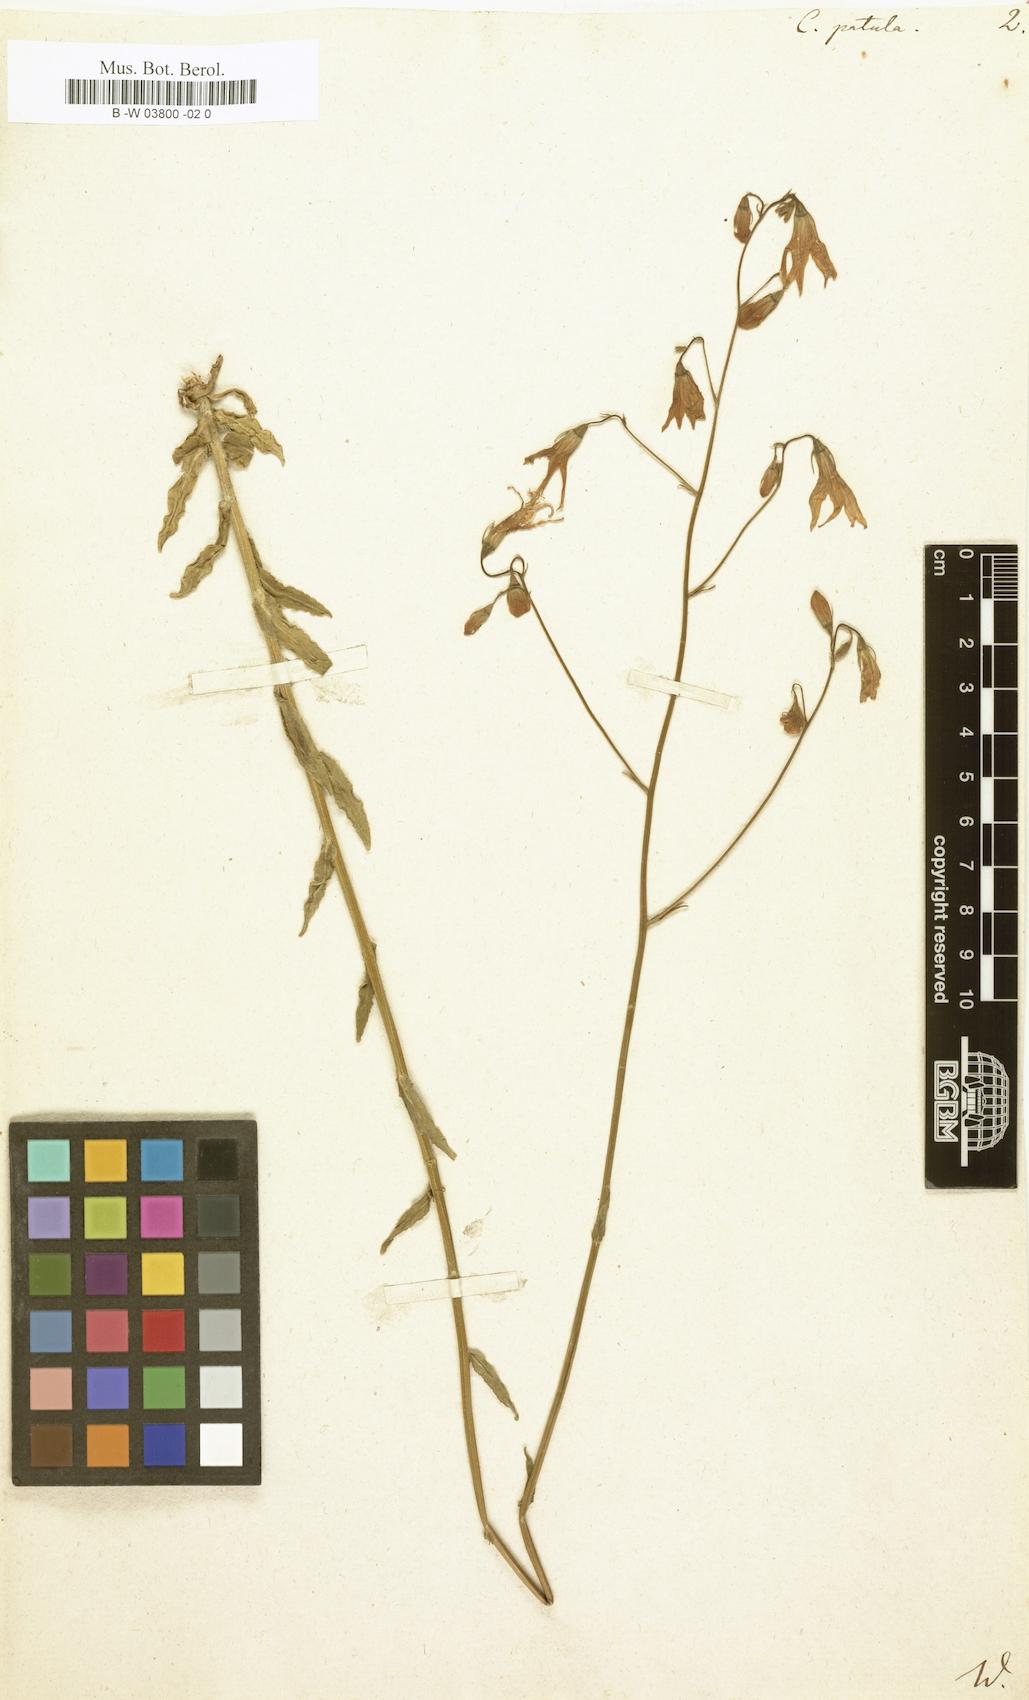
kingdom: Plantae
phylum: Tracheophyta
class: Magnoliopsida
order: Asterales
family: Campanulaceae
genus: Campanula
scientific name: Campanula patula
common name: Spreading bellflower
